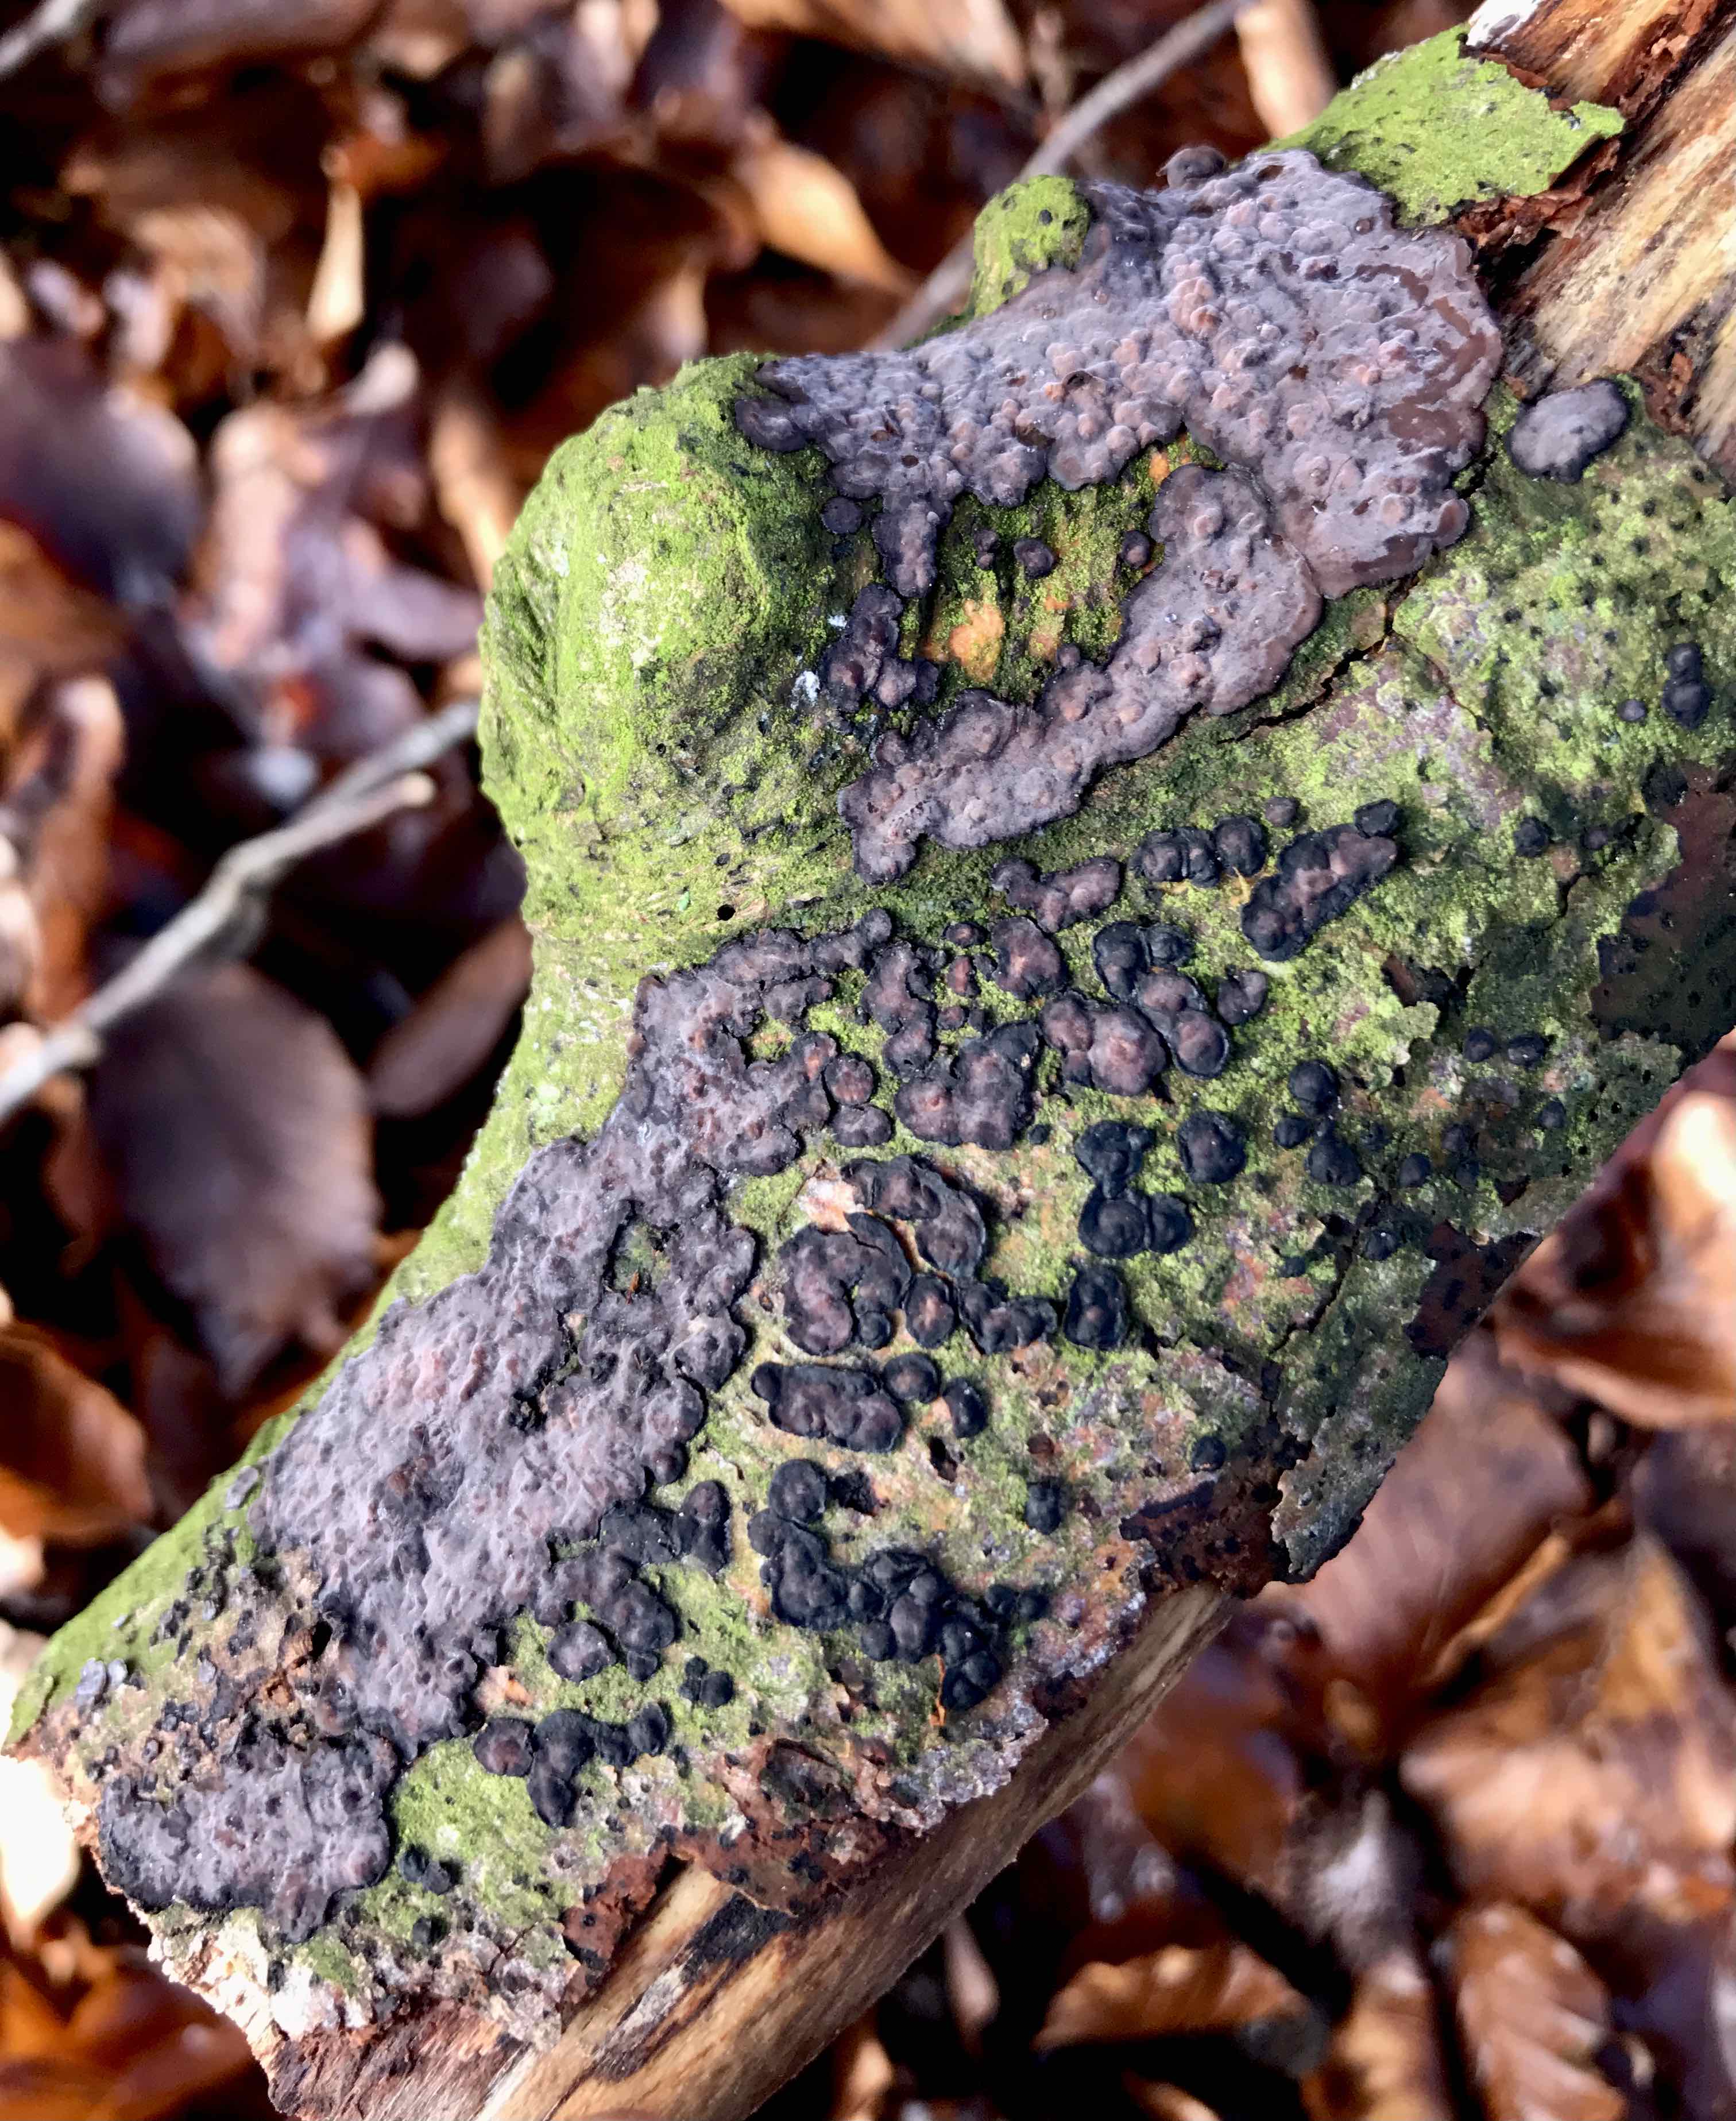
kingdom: Fungi
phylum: Basidiomycota
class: Agaricomycetes
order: Russulales
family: Peniophoraceae
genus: Peniophora
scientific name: Peniophora quercina
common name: ege-voksskind
